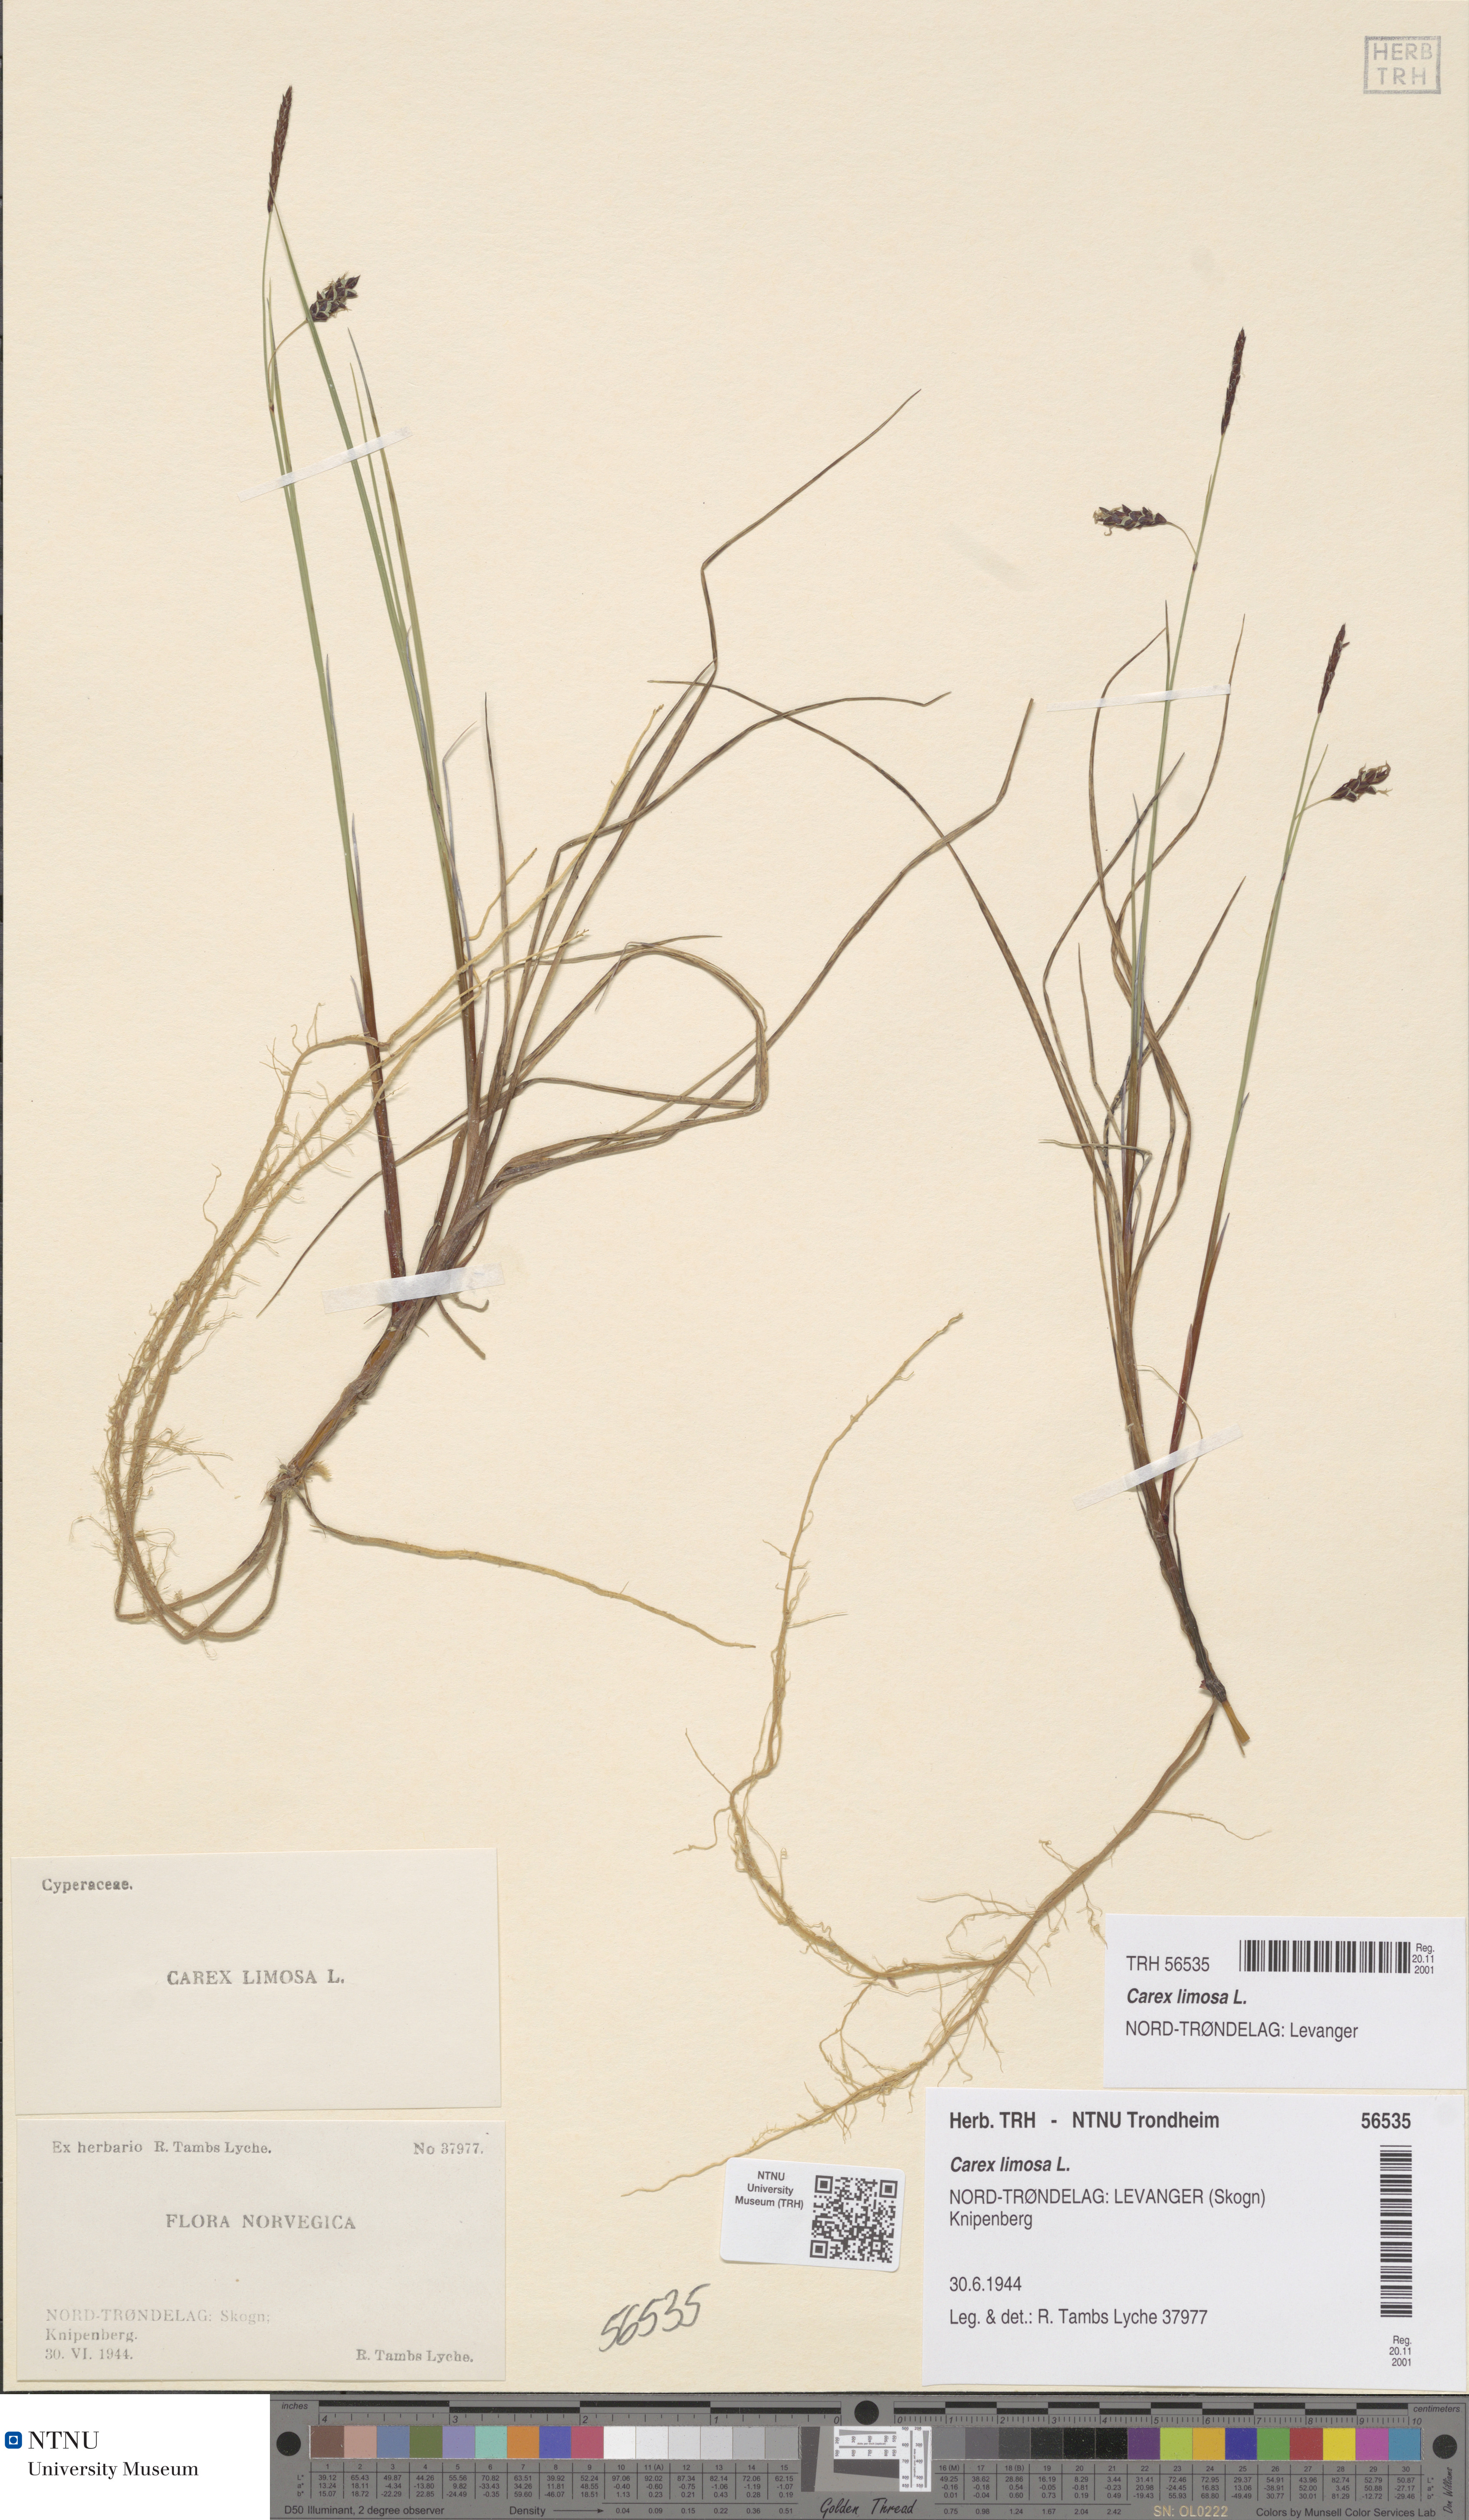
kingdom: Plantae
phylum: Tracheophyta
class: Liliopsida
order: Poales
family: Cyperaceae
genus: Carex
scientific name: Carex limosa
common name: Bog sedge
